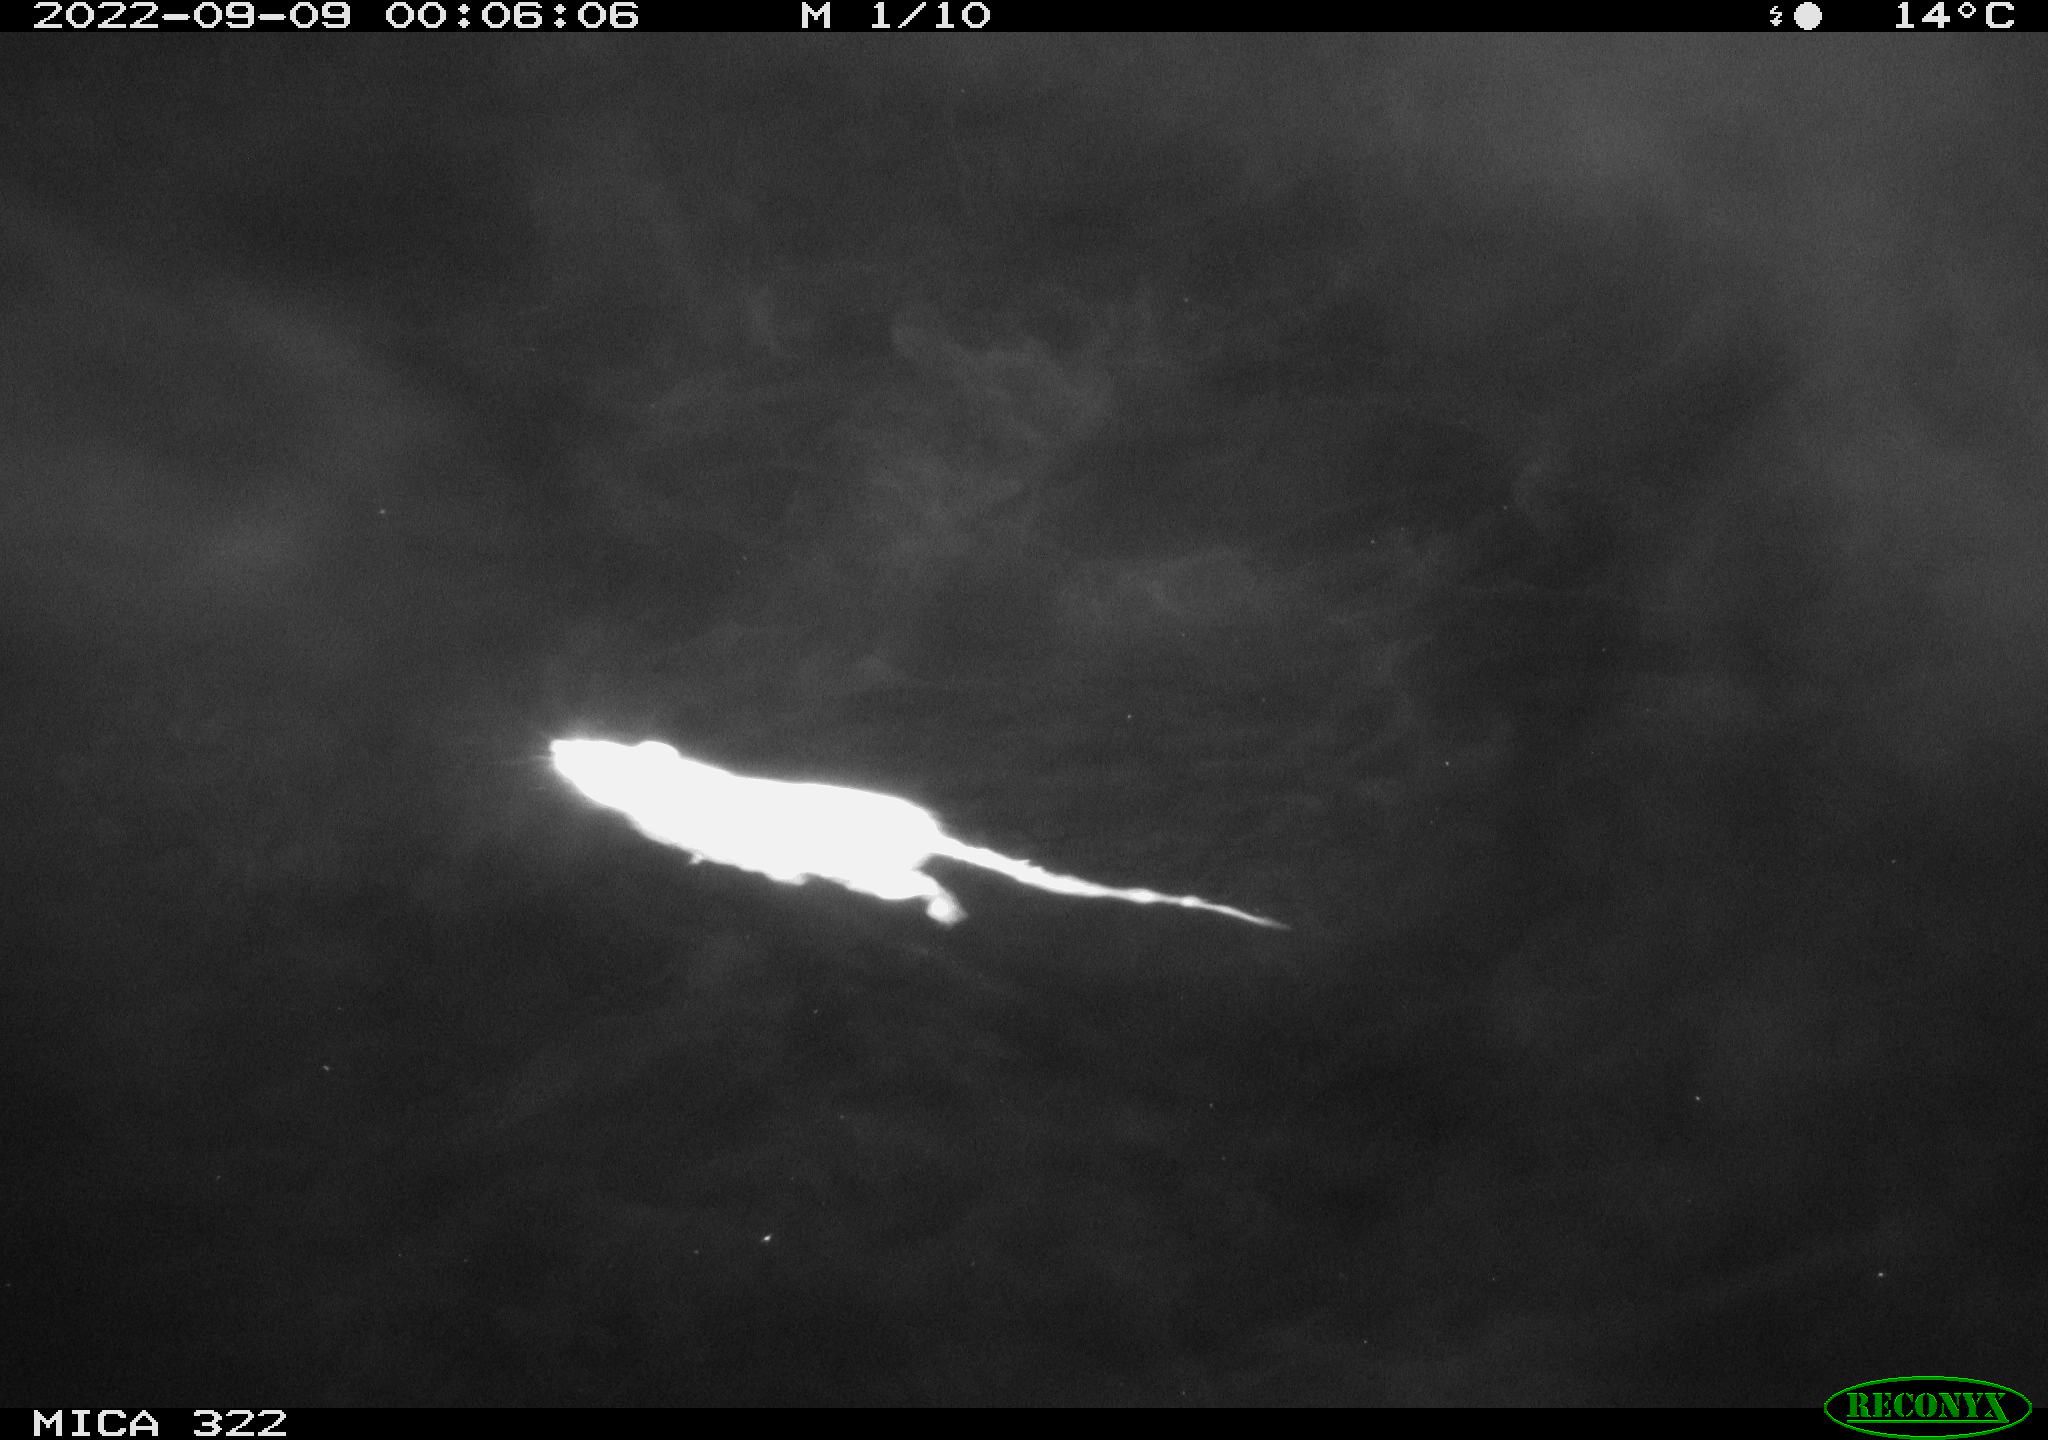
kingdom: Animalia
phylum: Chordata
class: Mammalia
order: Rodentia
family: Muridae
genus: Rattus
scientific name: Rattus norvegicus
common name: Brown rat
